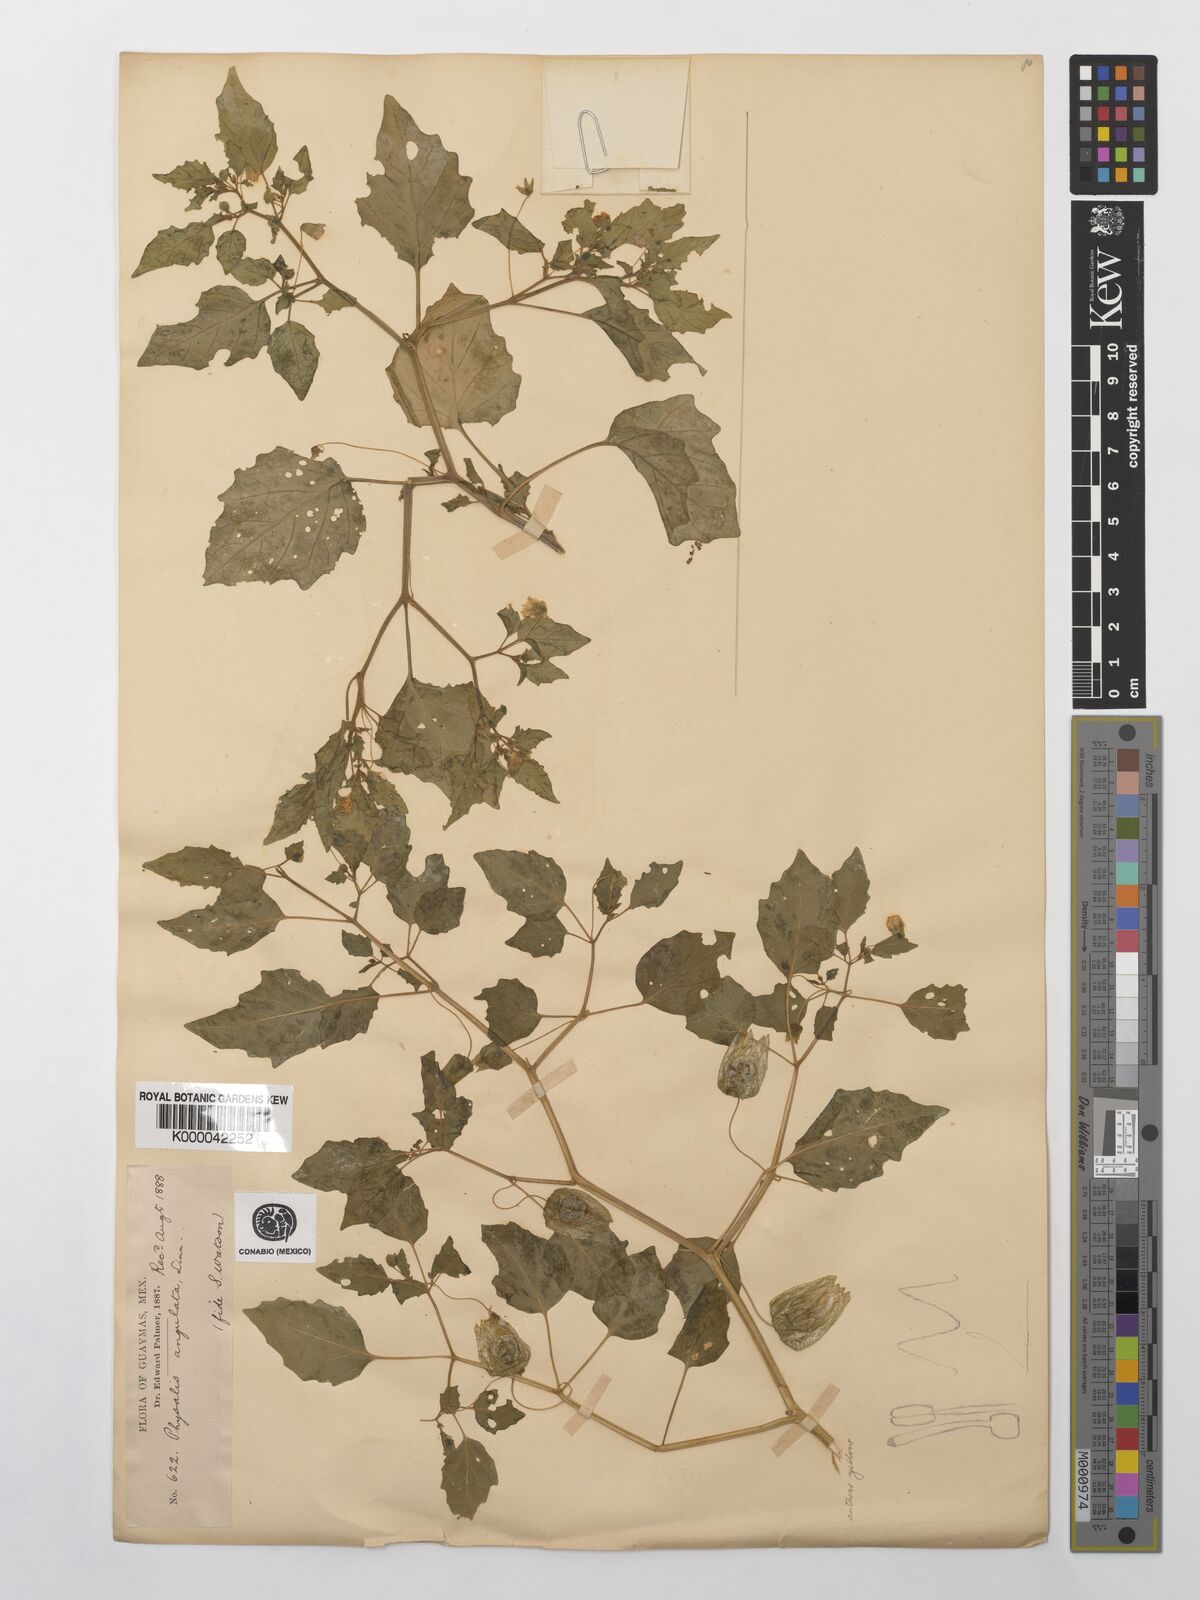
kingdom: Plantae
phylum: Tracheophyta
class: Magnoliopsida
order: Solanales
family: Solanaceae
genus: Physalis
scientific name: Physalis angulata
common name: Angular winter-cherry
